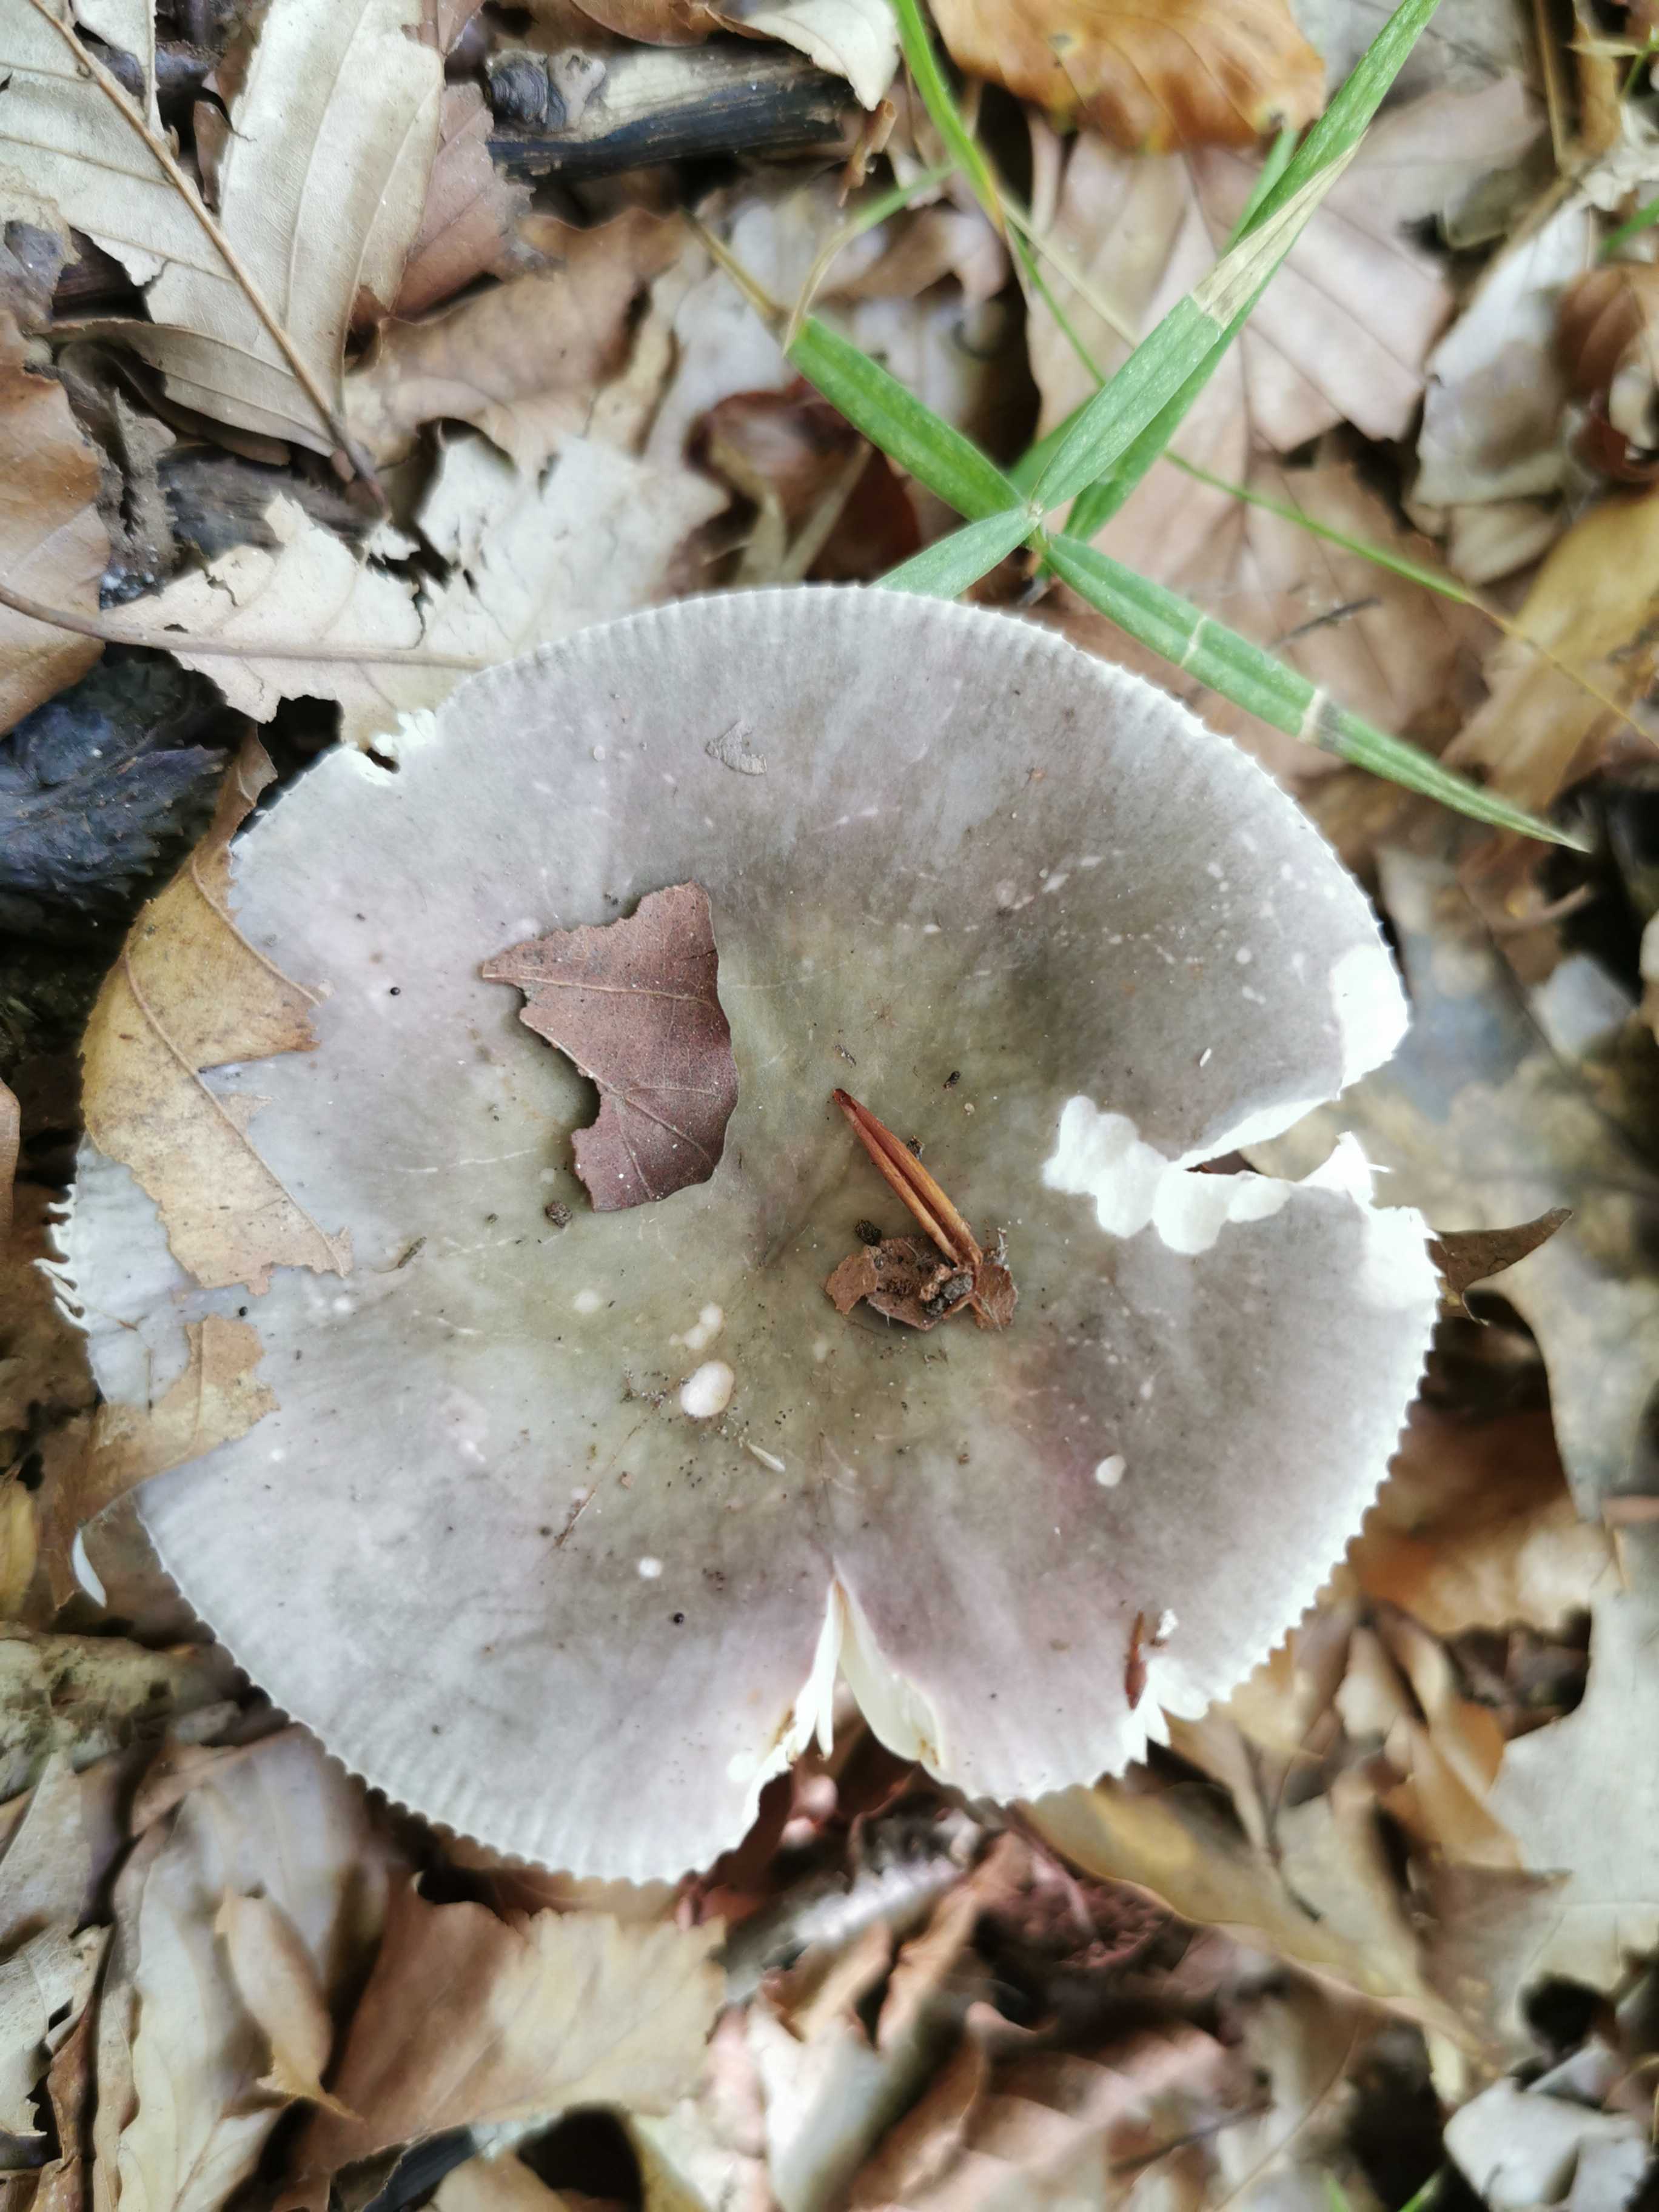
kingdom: Fungi
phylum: Basidiomycota
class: Agaricomycetes
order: Russulales
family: Russulaceae
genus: Russula
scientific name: Russula
